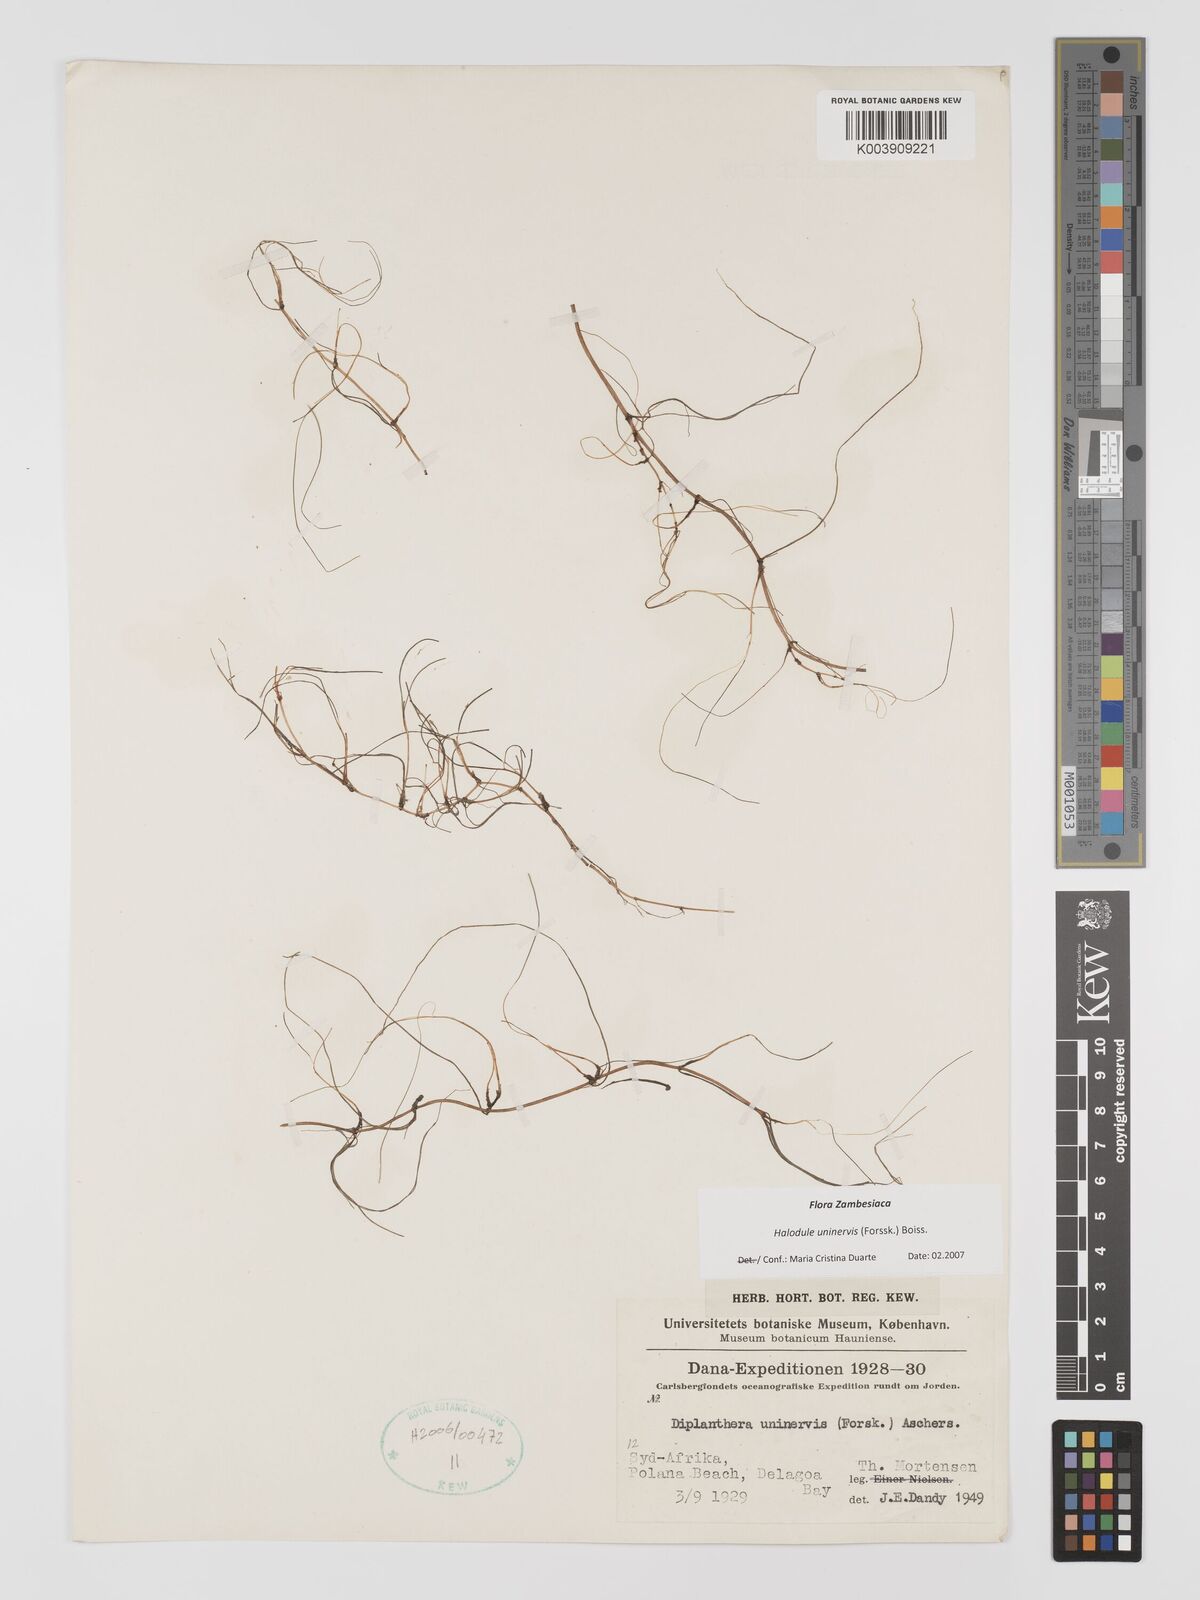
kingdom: Plantae
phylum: Tracheophyta
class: Liliopsida
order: Alismatales
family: Cymodoceaceae
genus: Halodule
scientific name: Halodule uninervis
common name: Narrowleaf seagrass
